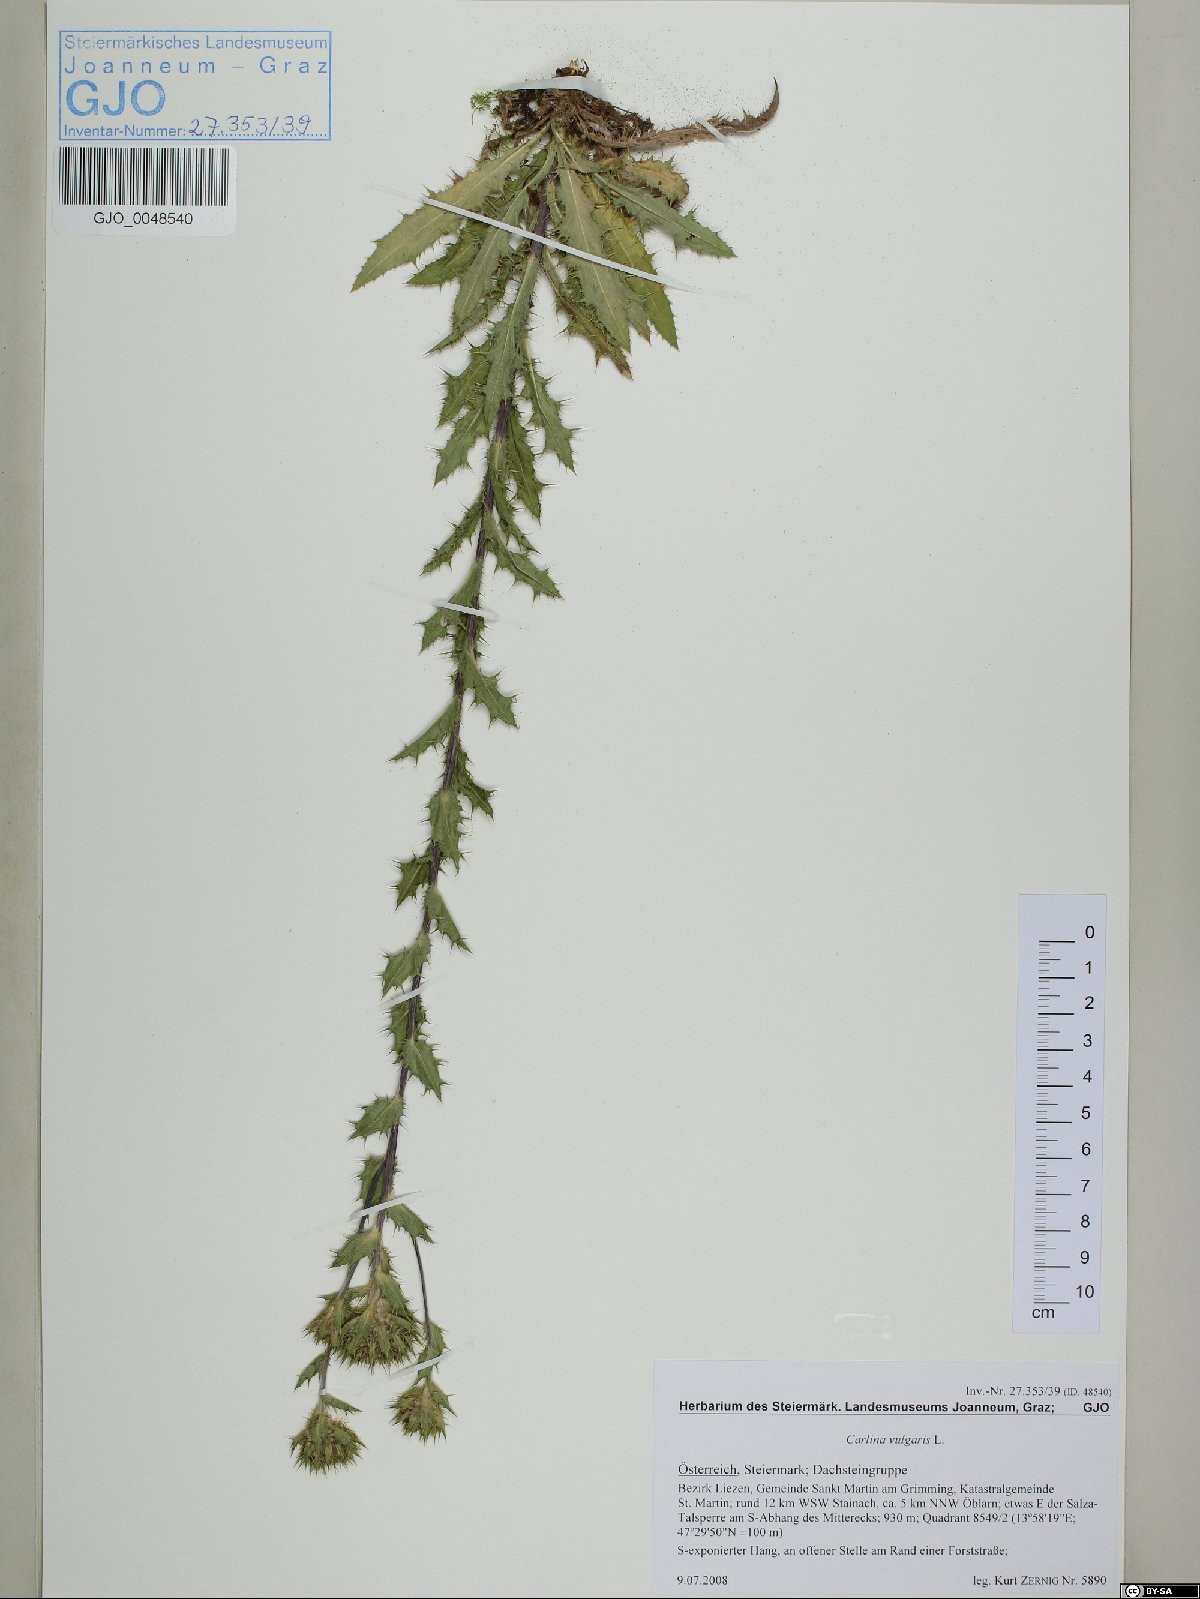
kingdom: Plantae
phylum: Tracheophyta
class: Magnoliopsida
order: Asterales
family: Asteraceae
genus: Carlina
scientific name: Carlina vulgaris
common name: Carline thistle
